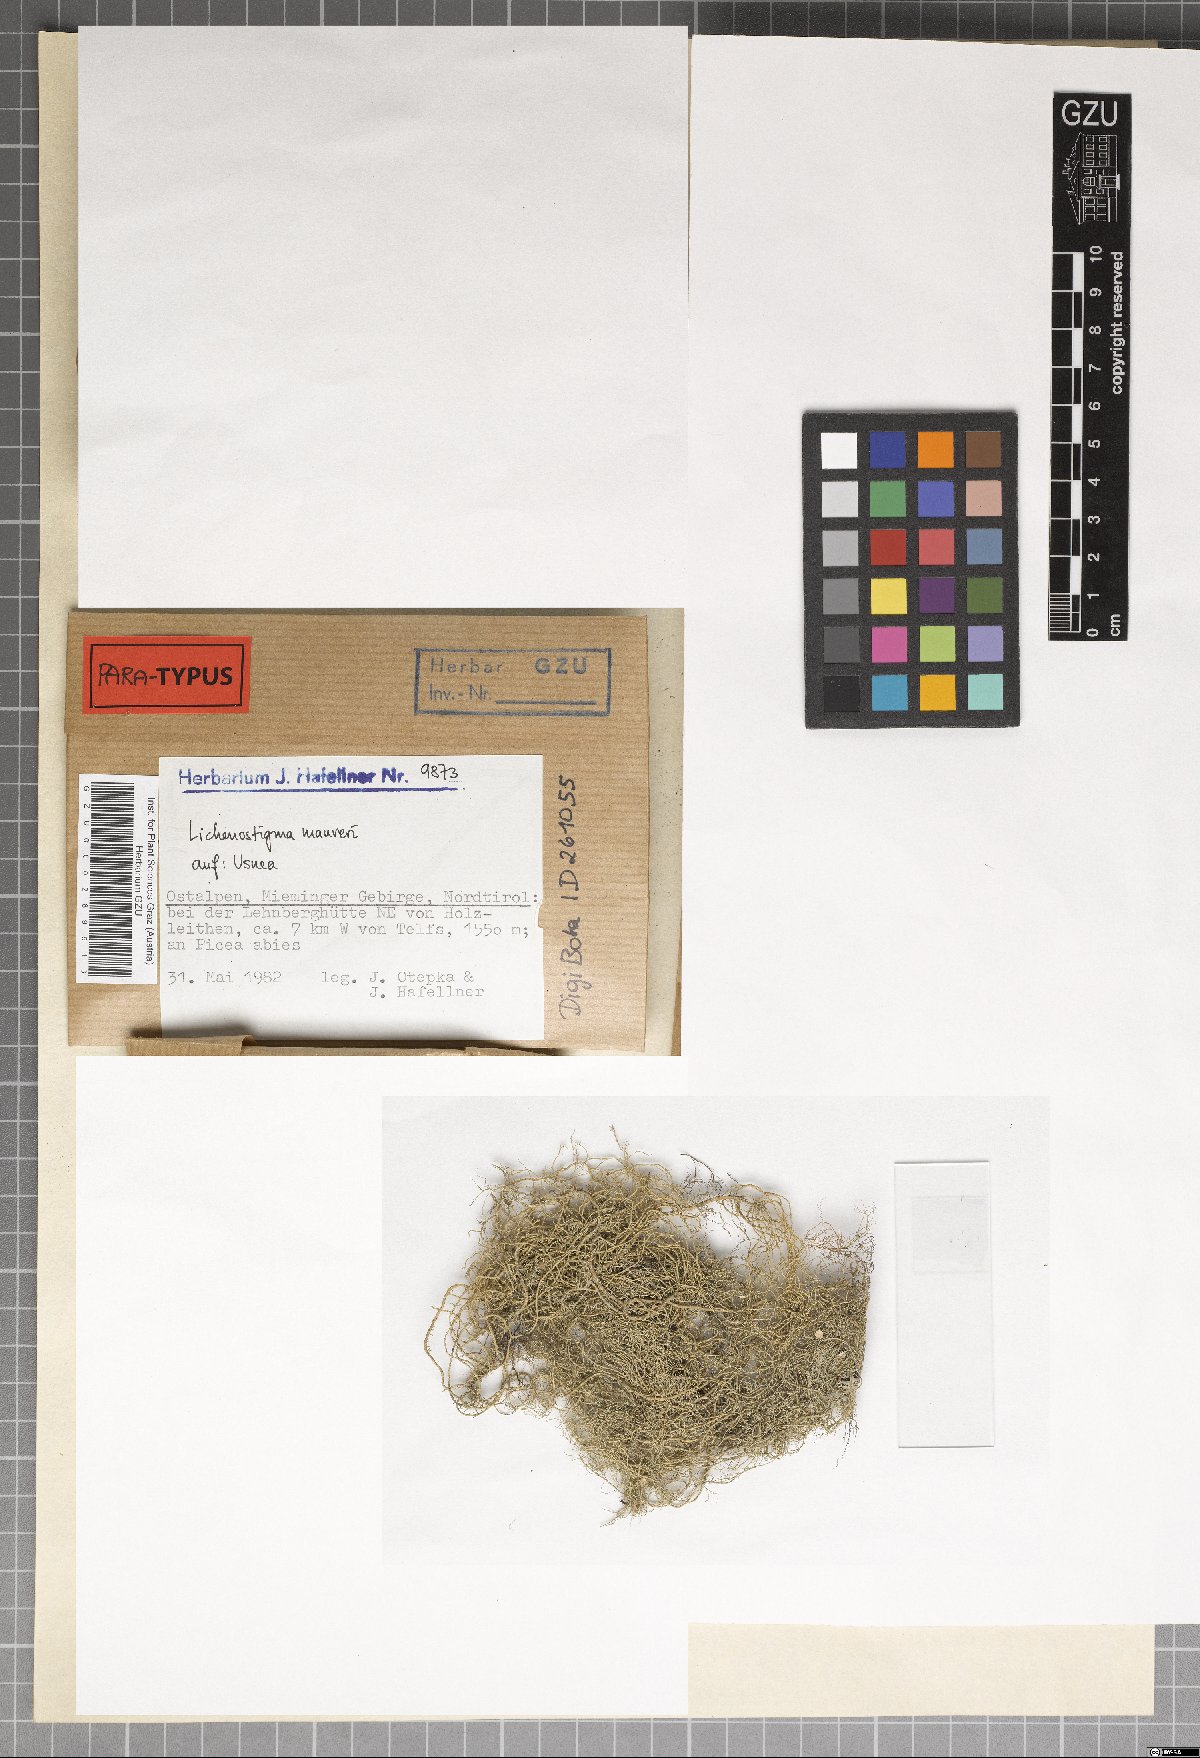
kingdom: Fungi
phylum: Ascomycota
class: Arthoniomycetes
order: Lichenostigmatales
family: Phaeococcomycetaceae
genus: Lichenostigma
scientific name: Lichenostigma maureri
